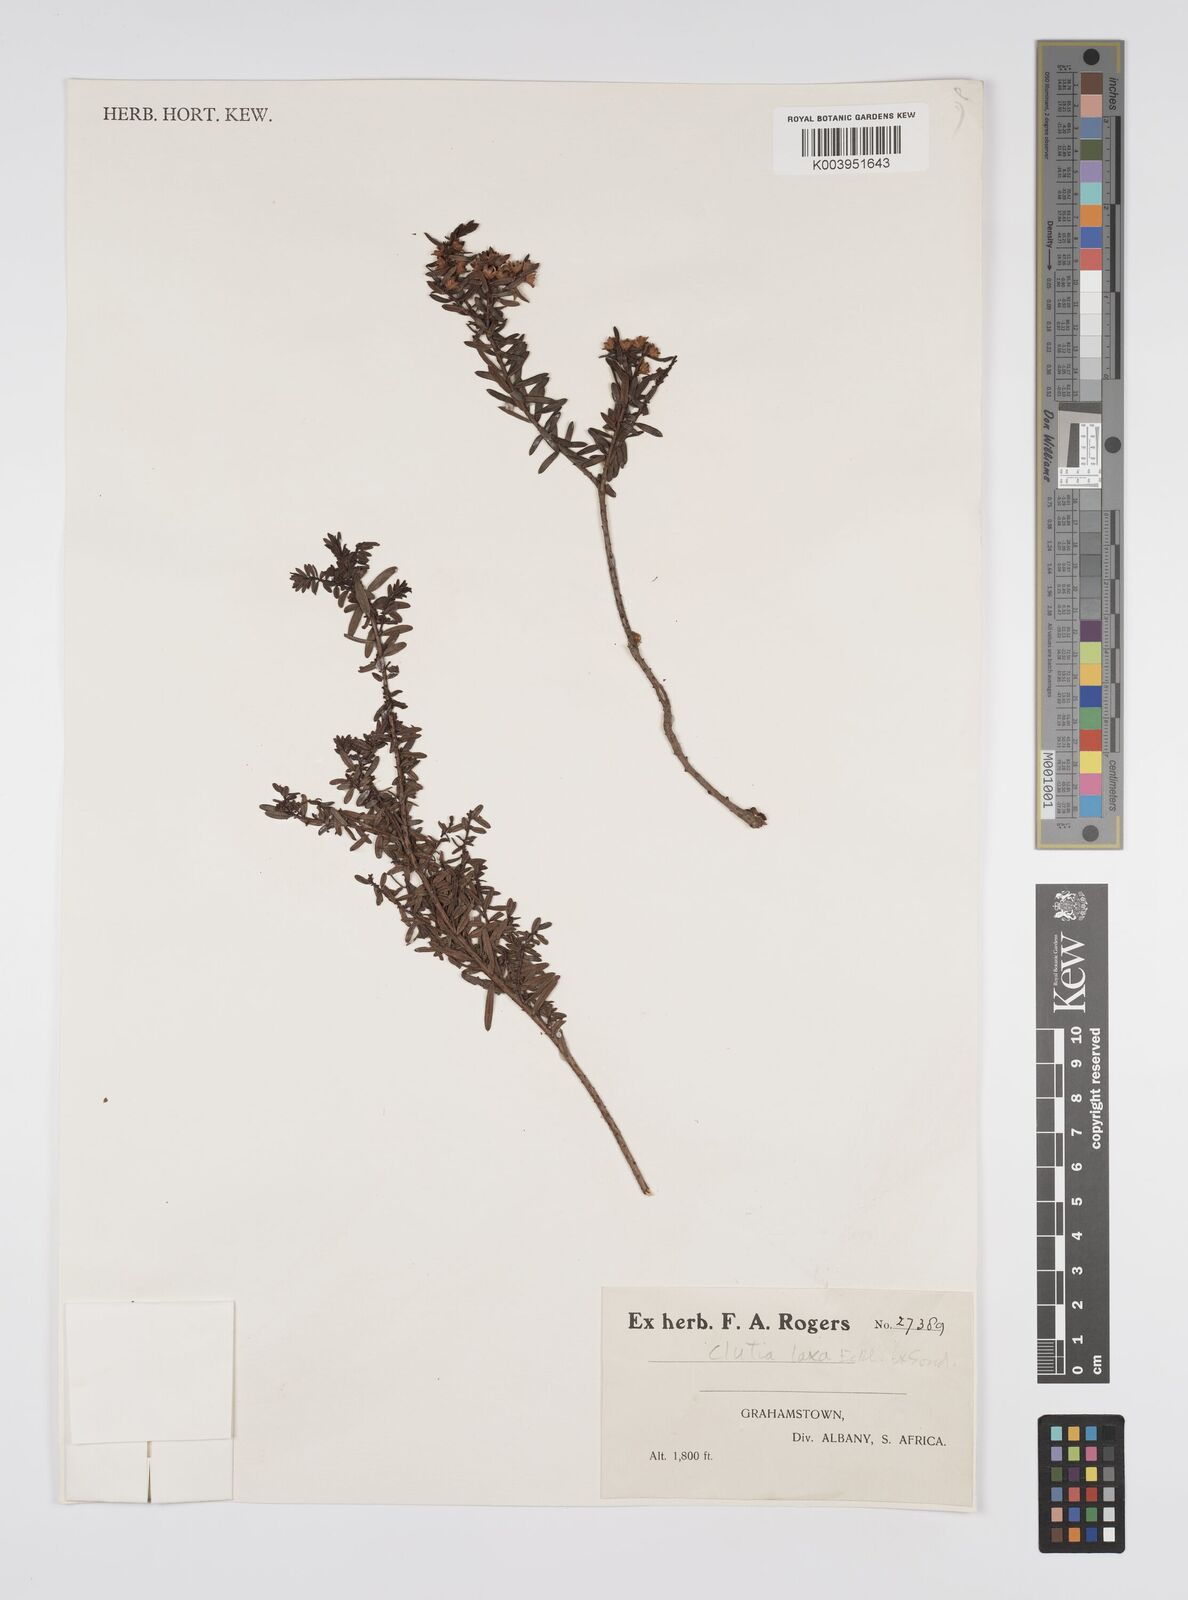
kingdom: Plantae
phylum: Tracheophyta
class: Magnoliopsida
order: Malpighiales
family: Peraceae
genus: Clutia
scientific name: Clutia laxa
